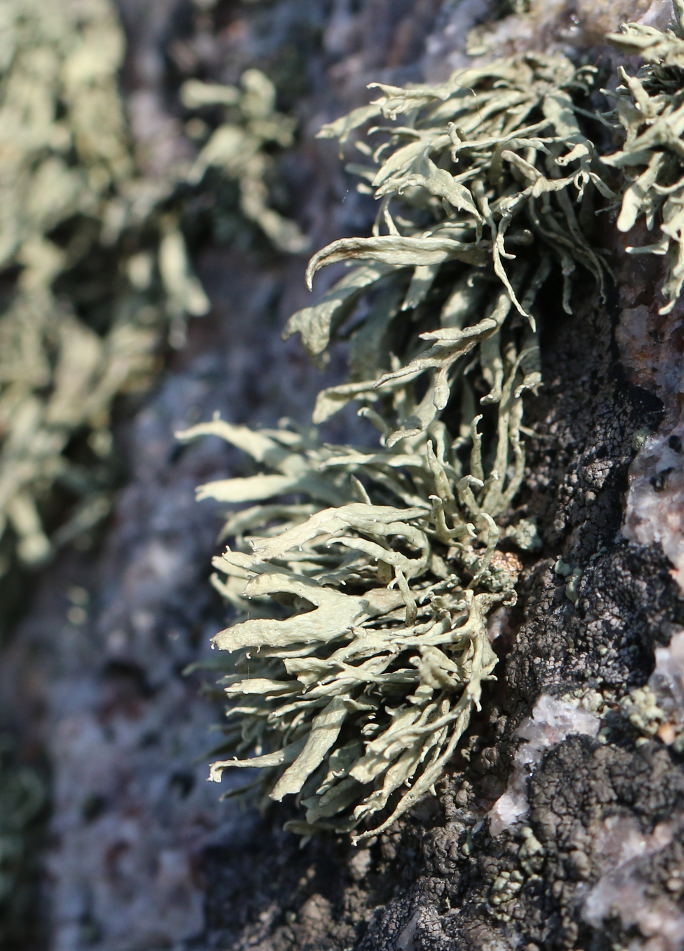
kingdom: Fungi
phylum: Ascomycota
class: Lecanoromycetes
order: Lecanorales
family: Ramalinaceae
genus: Ramalina
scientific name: Ramalina siliquosa
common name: klippe-grenlav
